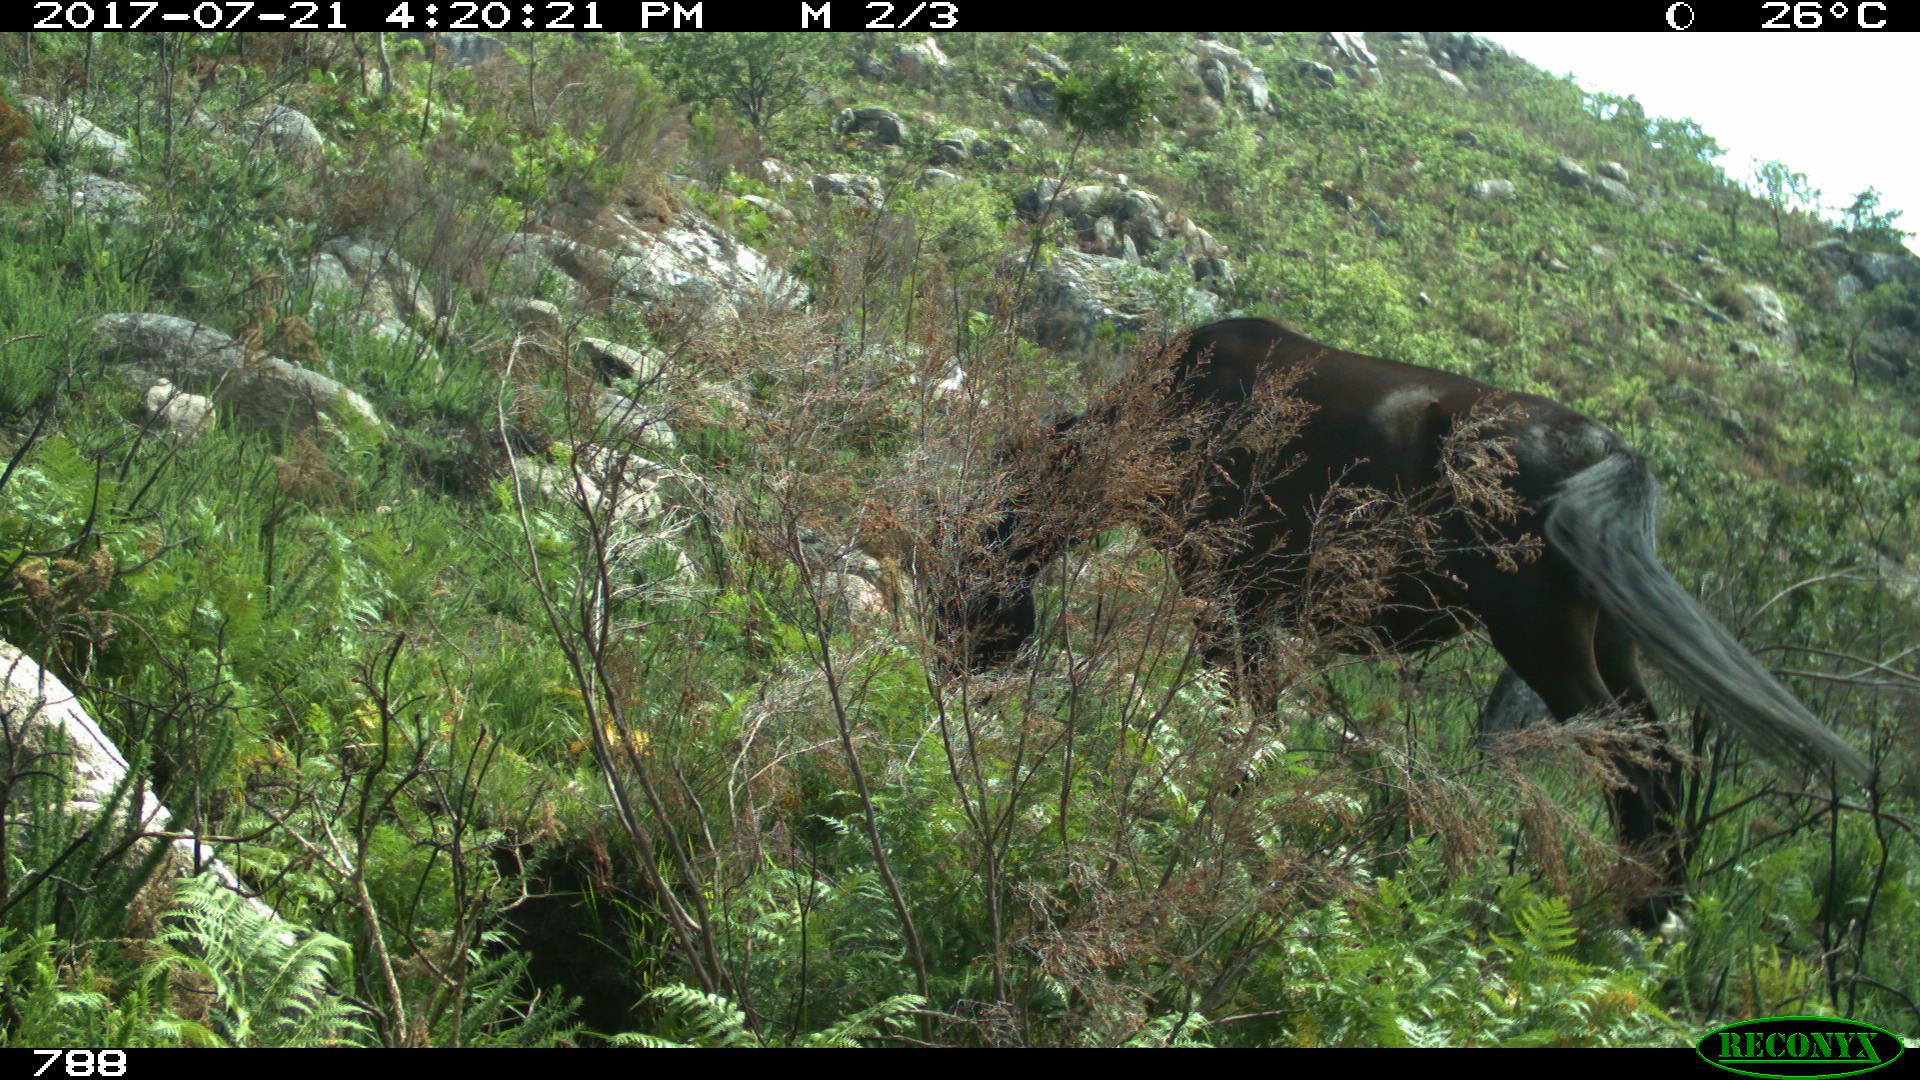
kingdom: Animalia
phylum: Chordata
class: Mammalia
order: Perissodactyla
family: Equidae
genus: Equus
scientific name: Equus caballus
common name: Horse
